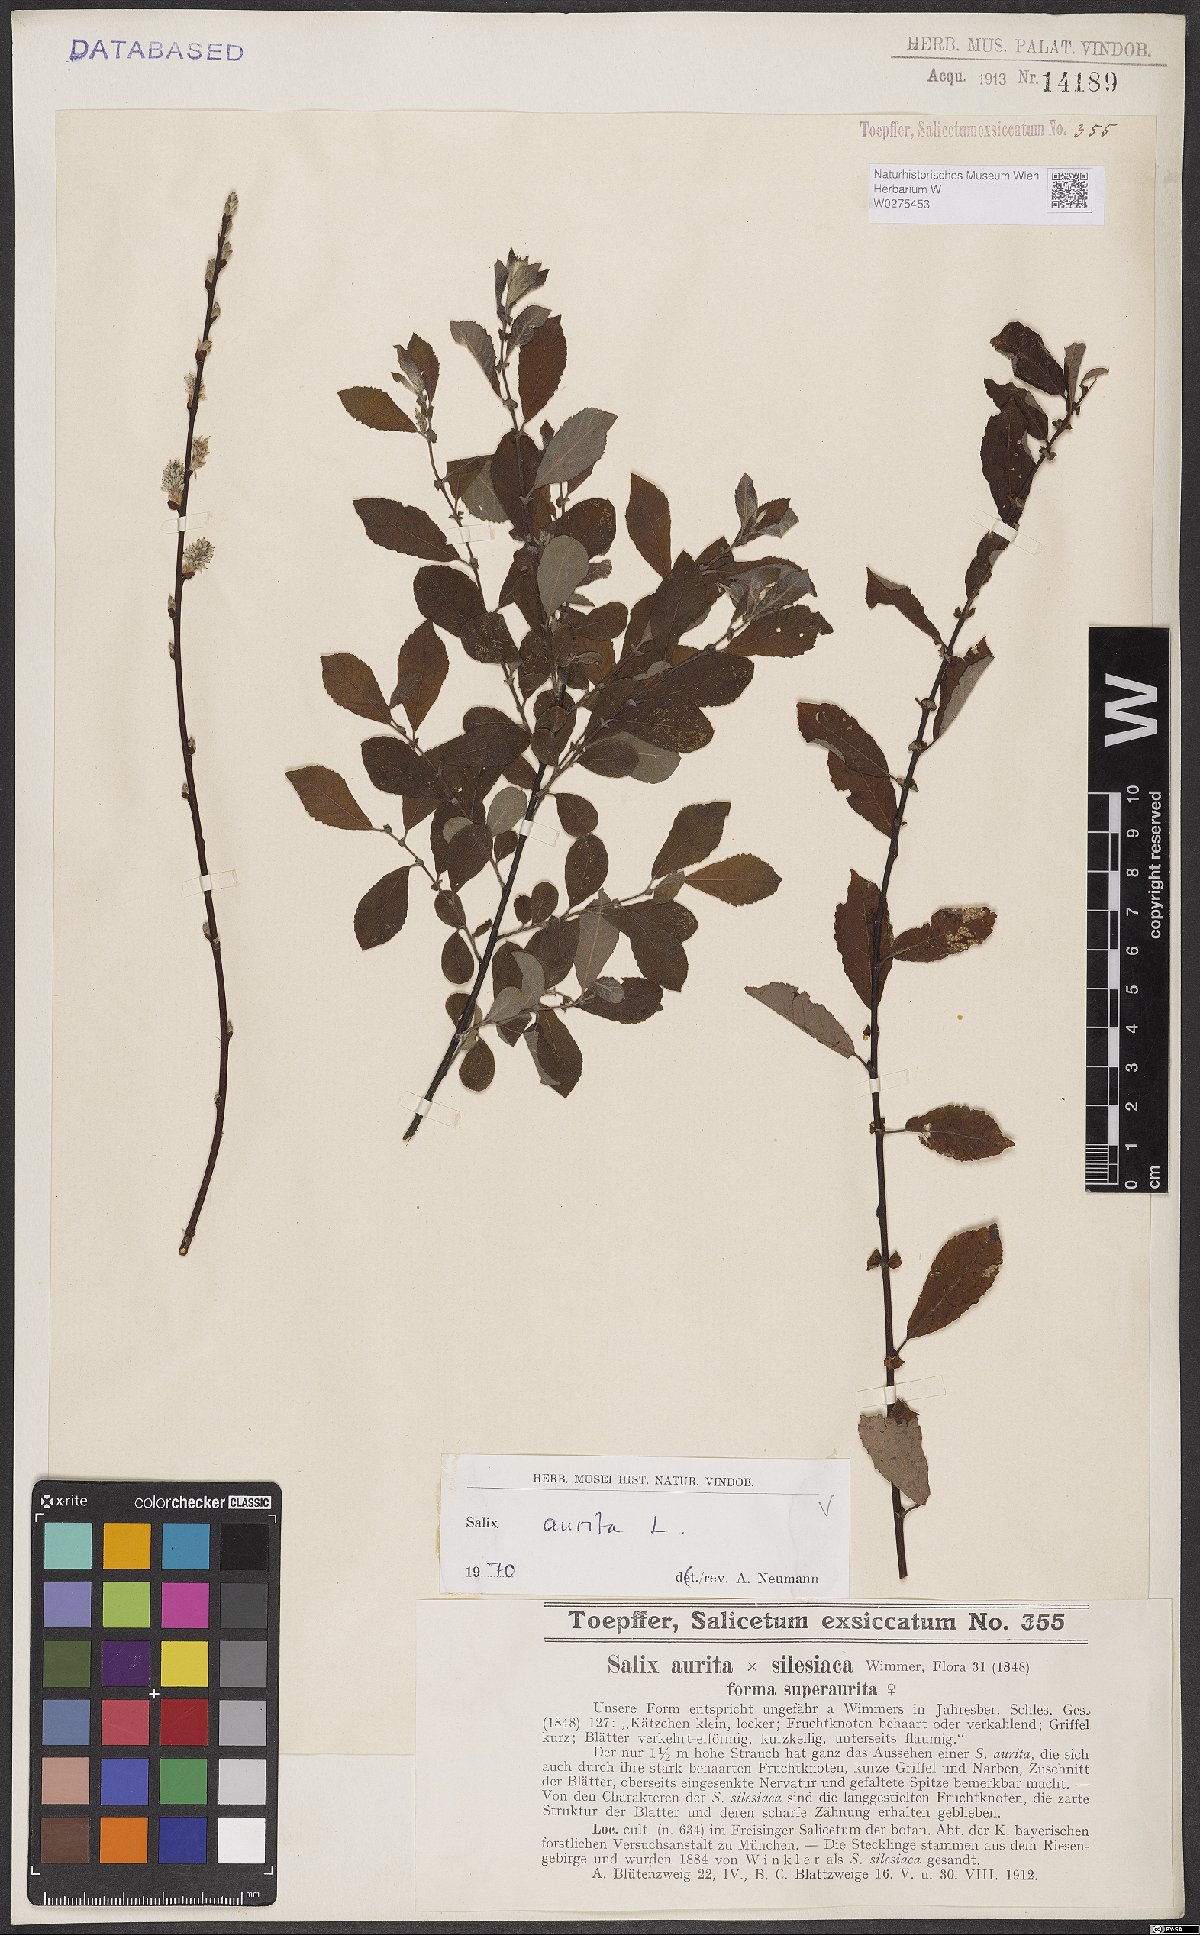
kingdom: Plantae
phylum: Tracheophyta
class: Magnoliopsida
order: Malpighiales
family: Salicaceae
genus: Salix
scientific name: Salix aurita
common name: Eared willow
